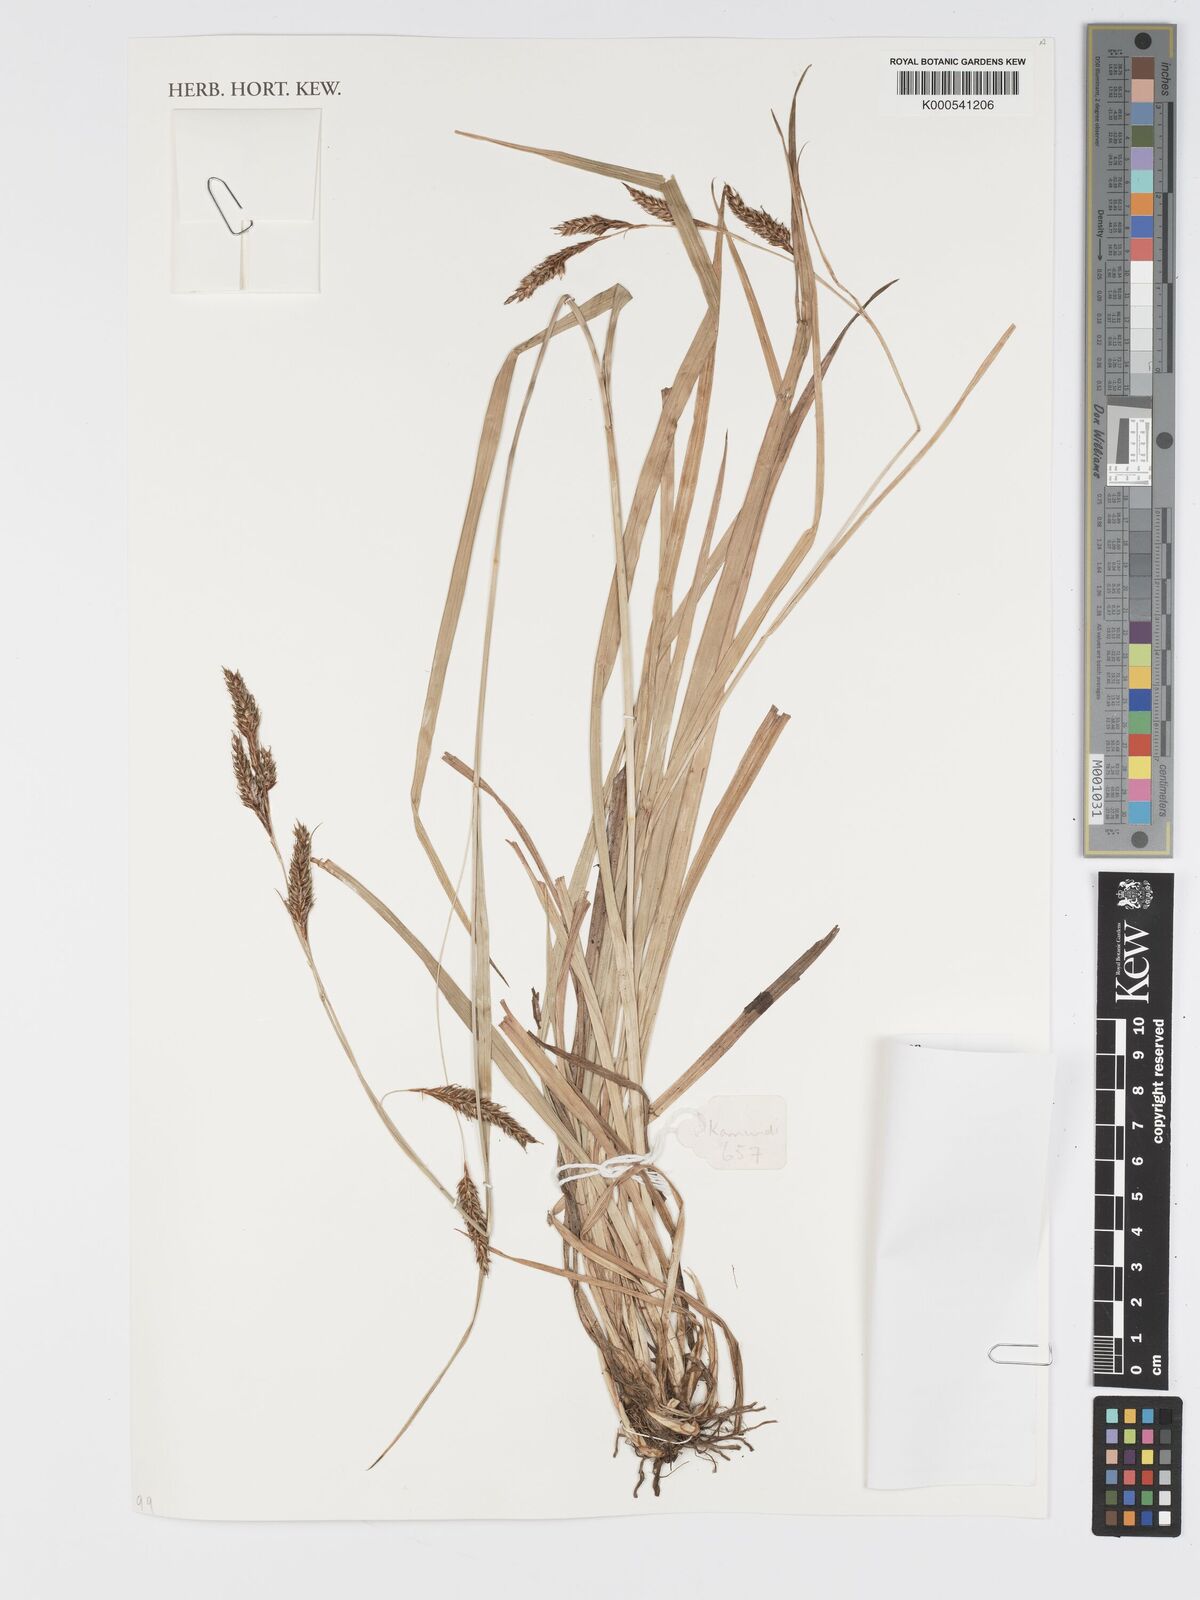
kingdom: Plantae
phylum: Tracheophyta
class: Liliopsida
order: Poales
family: Cyperaceae
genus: Carex
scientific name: Carex petitiana
